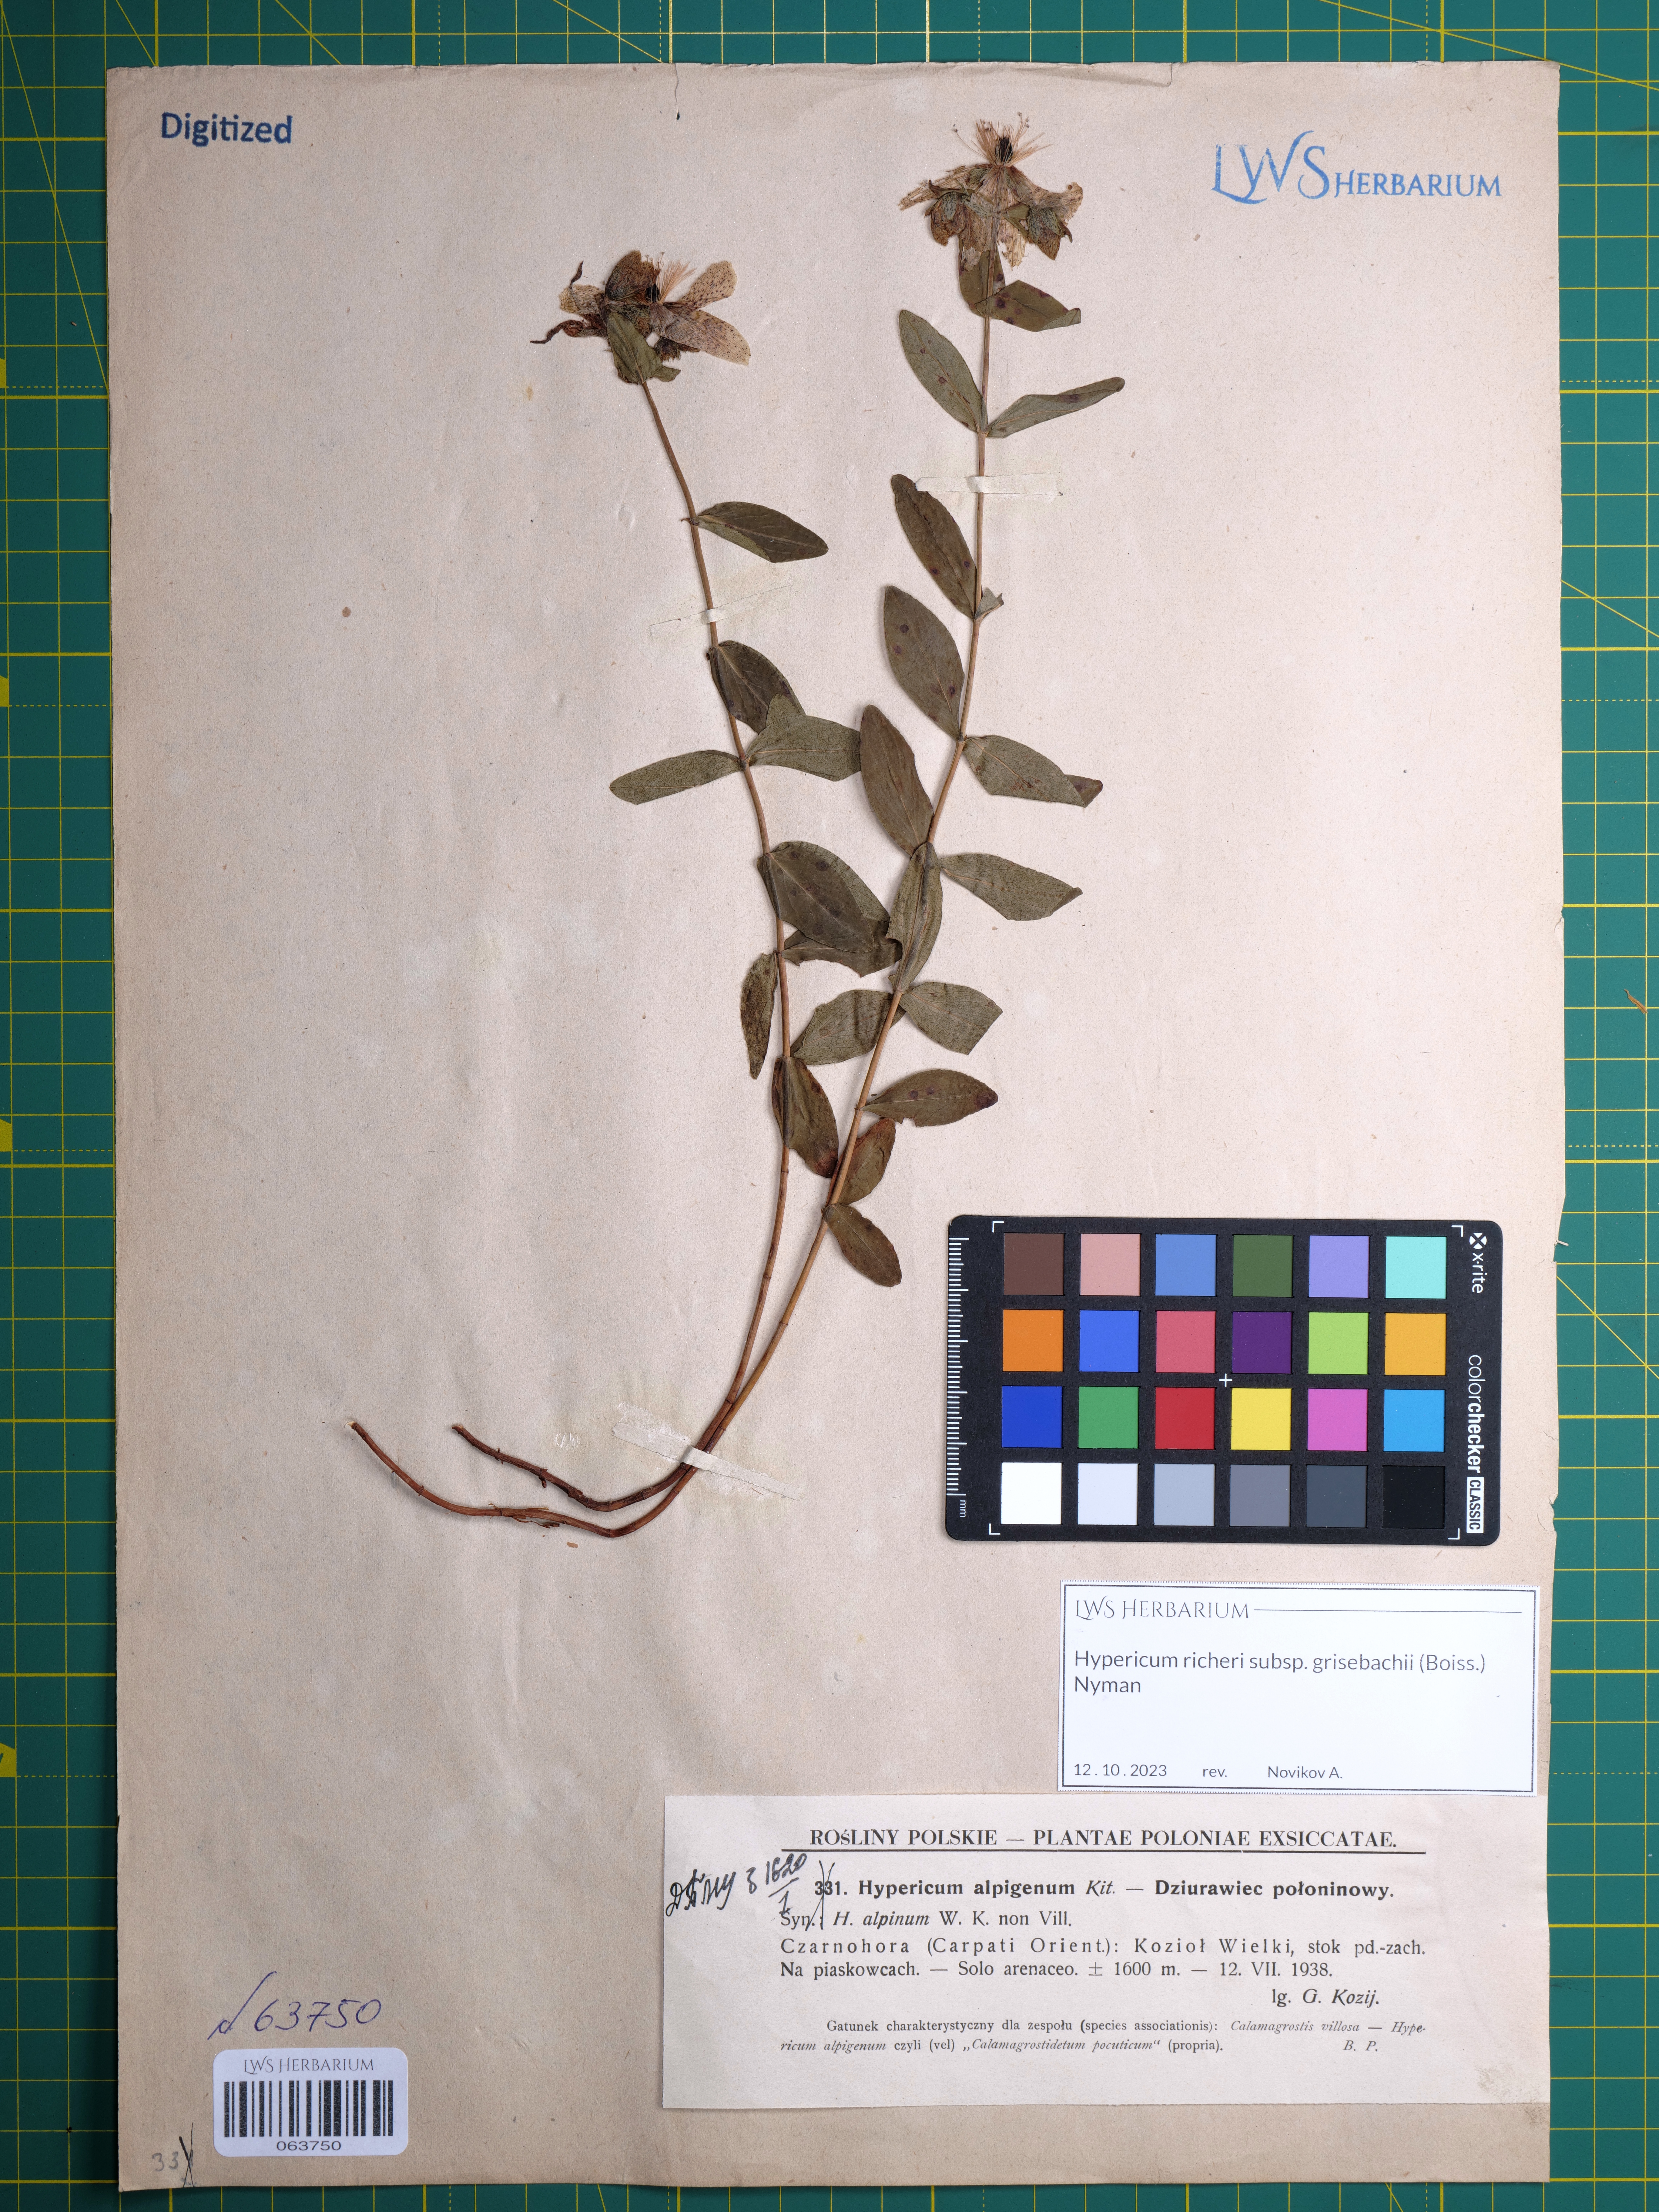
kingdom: Plantae
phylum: Tracheophyta
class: Magnoliopsida
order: Malpighiales
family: Hypericaceae
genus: Hypericum
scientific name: Hypericum richeri
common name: Alpine st john's-wort
